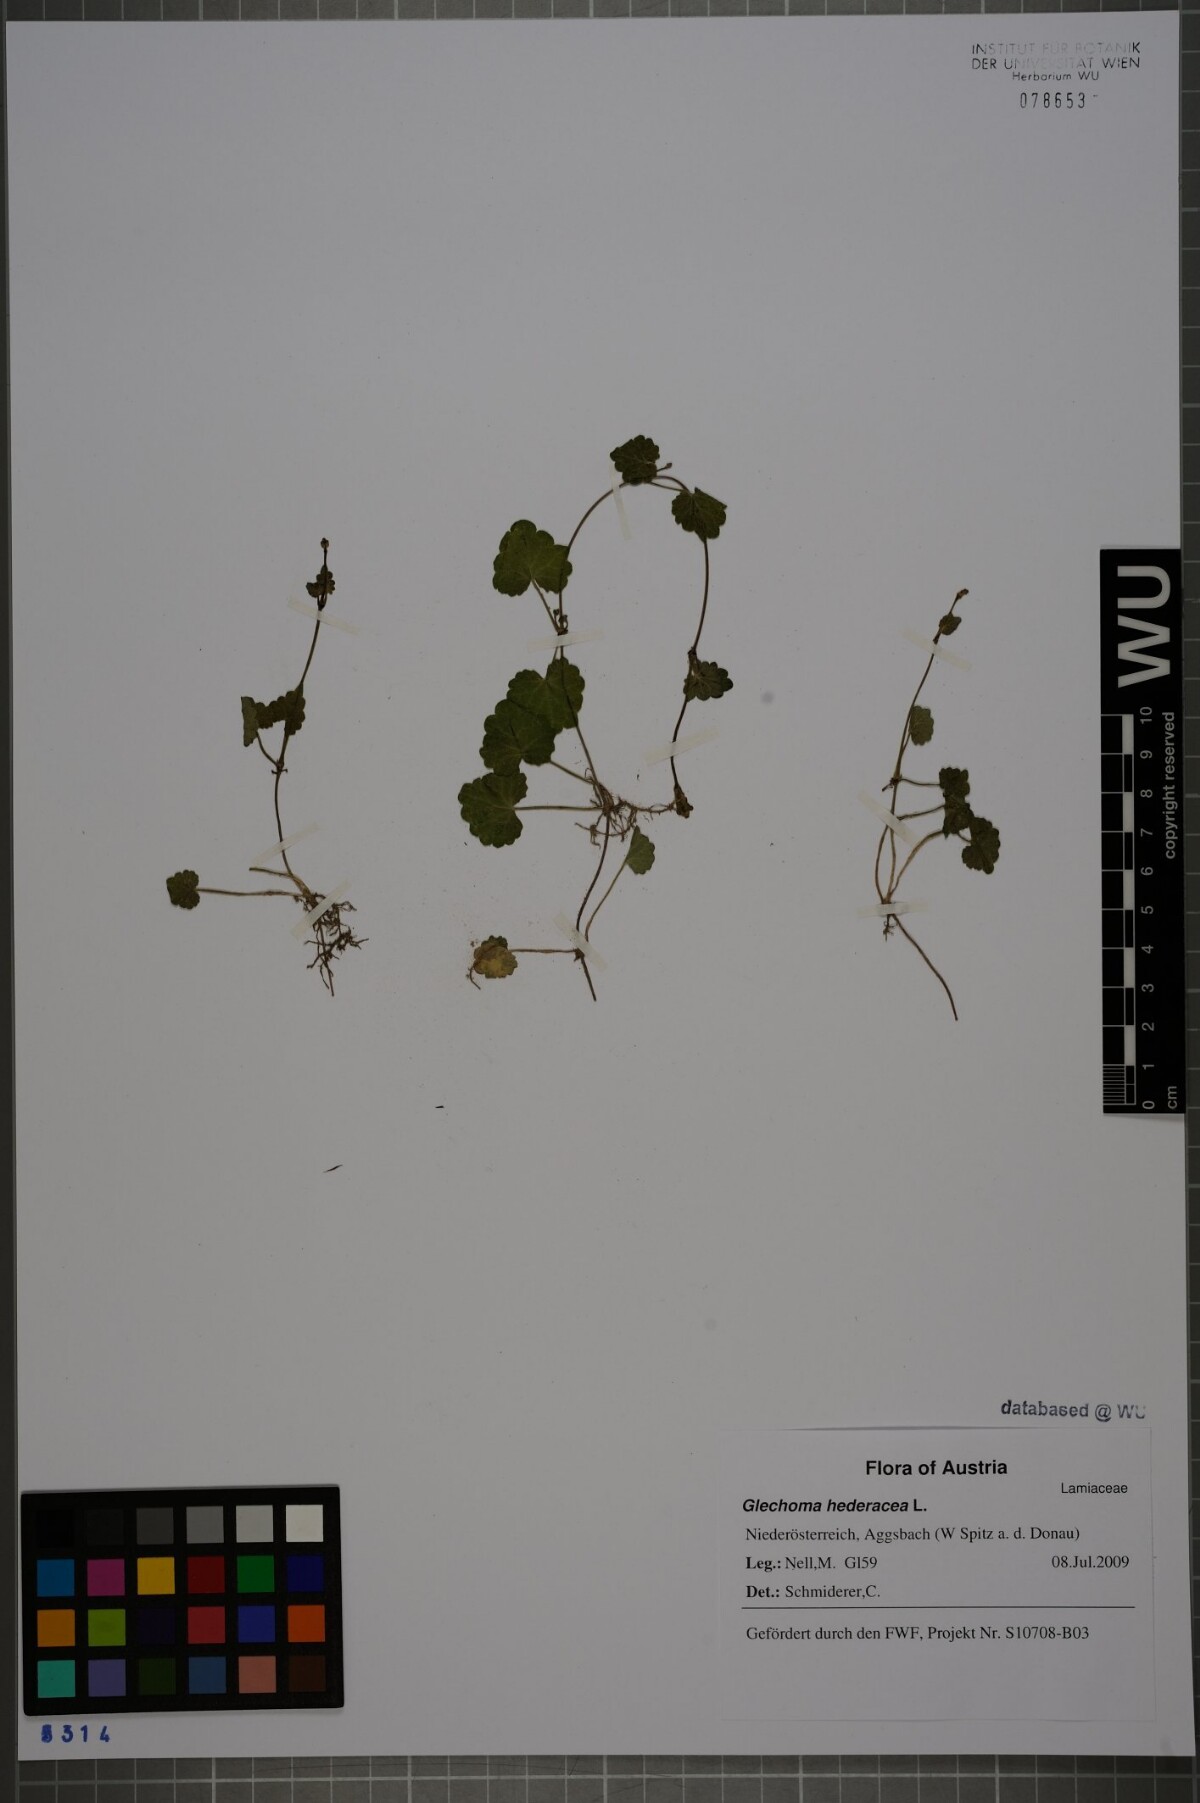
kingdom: Plantae
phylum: Tracheophyta
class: Magnoliopsida
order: Lamiales
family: Lamiaceae
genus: Glechoma
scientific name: Glechoma hederacea
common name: Ground ivy
